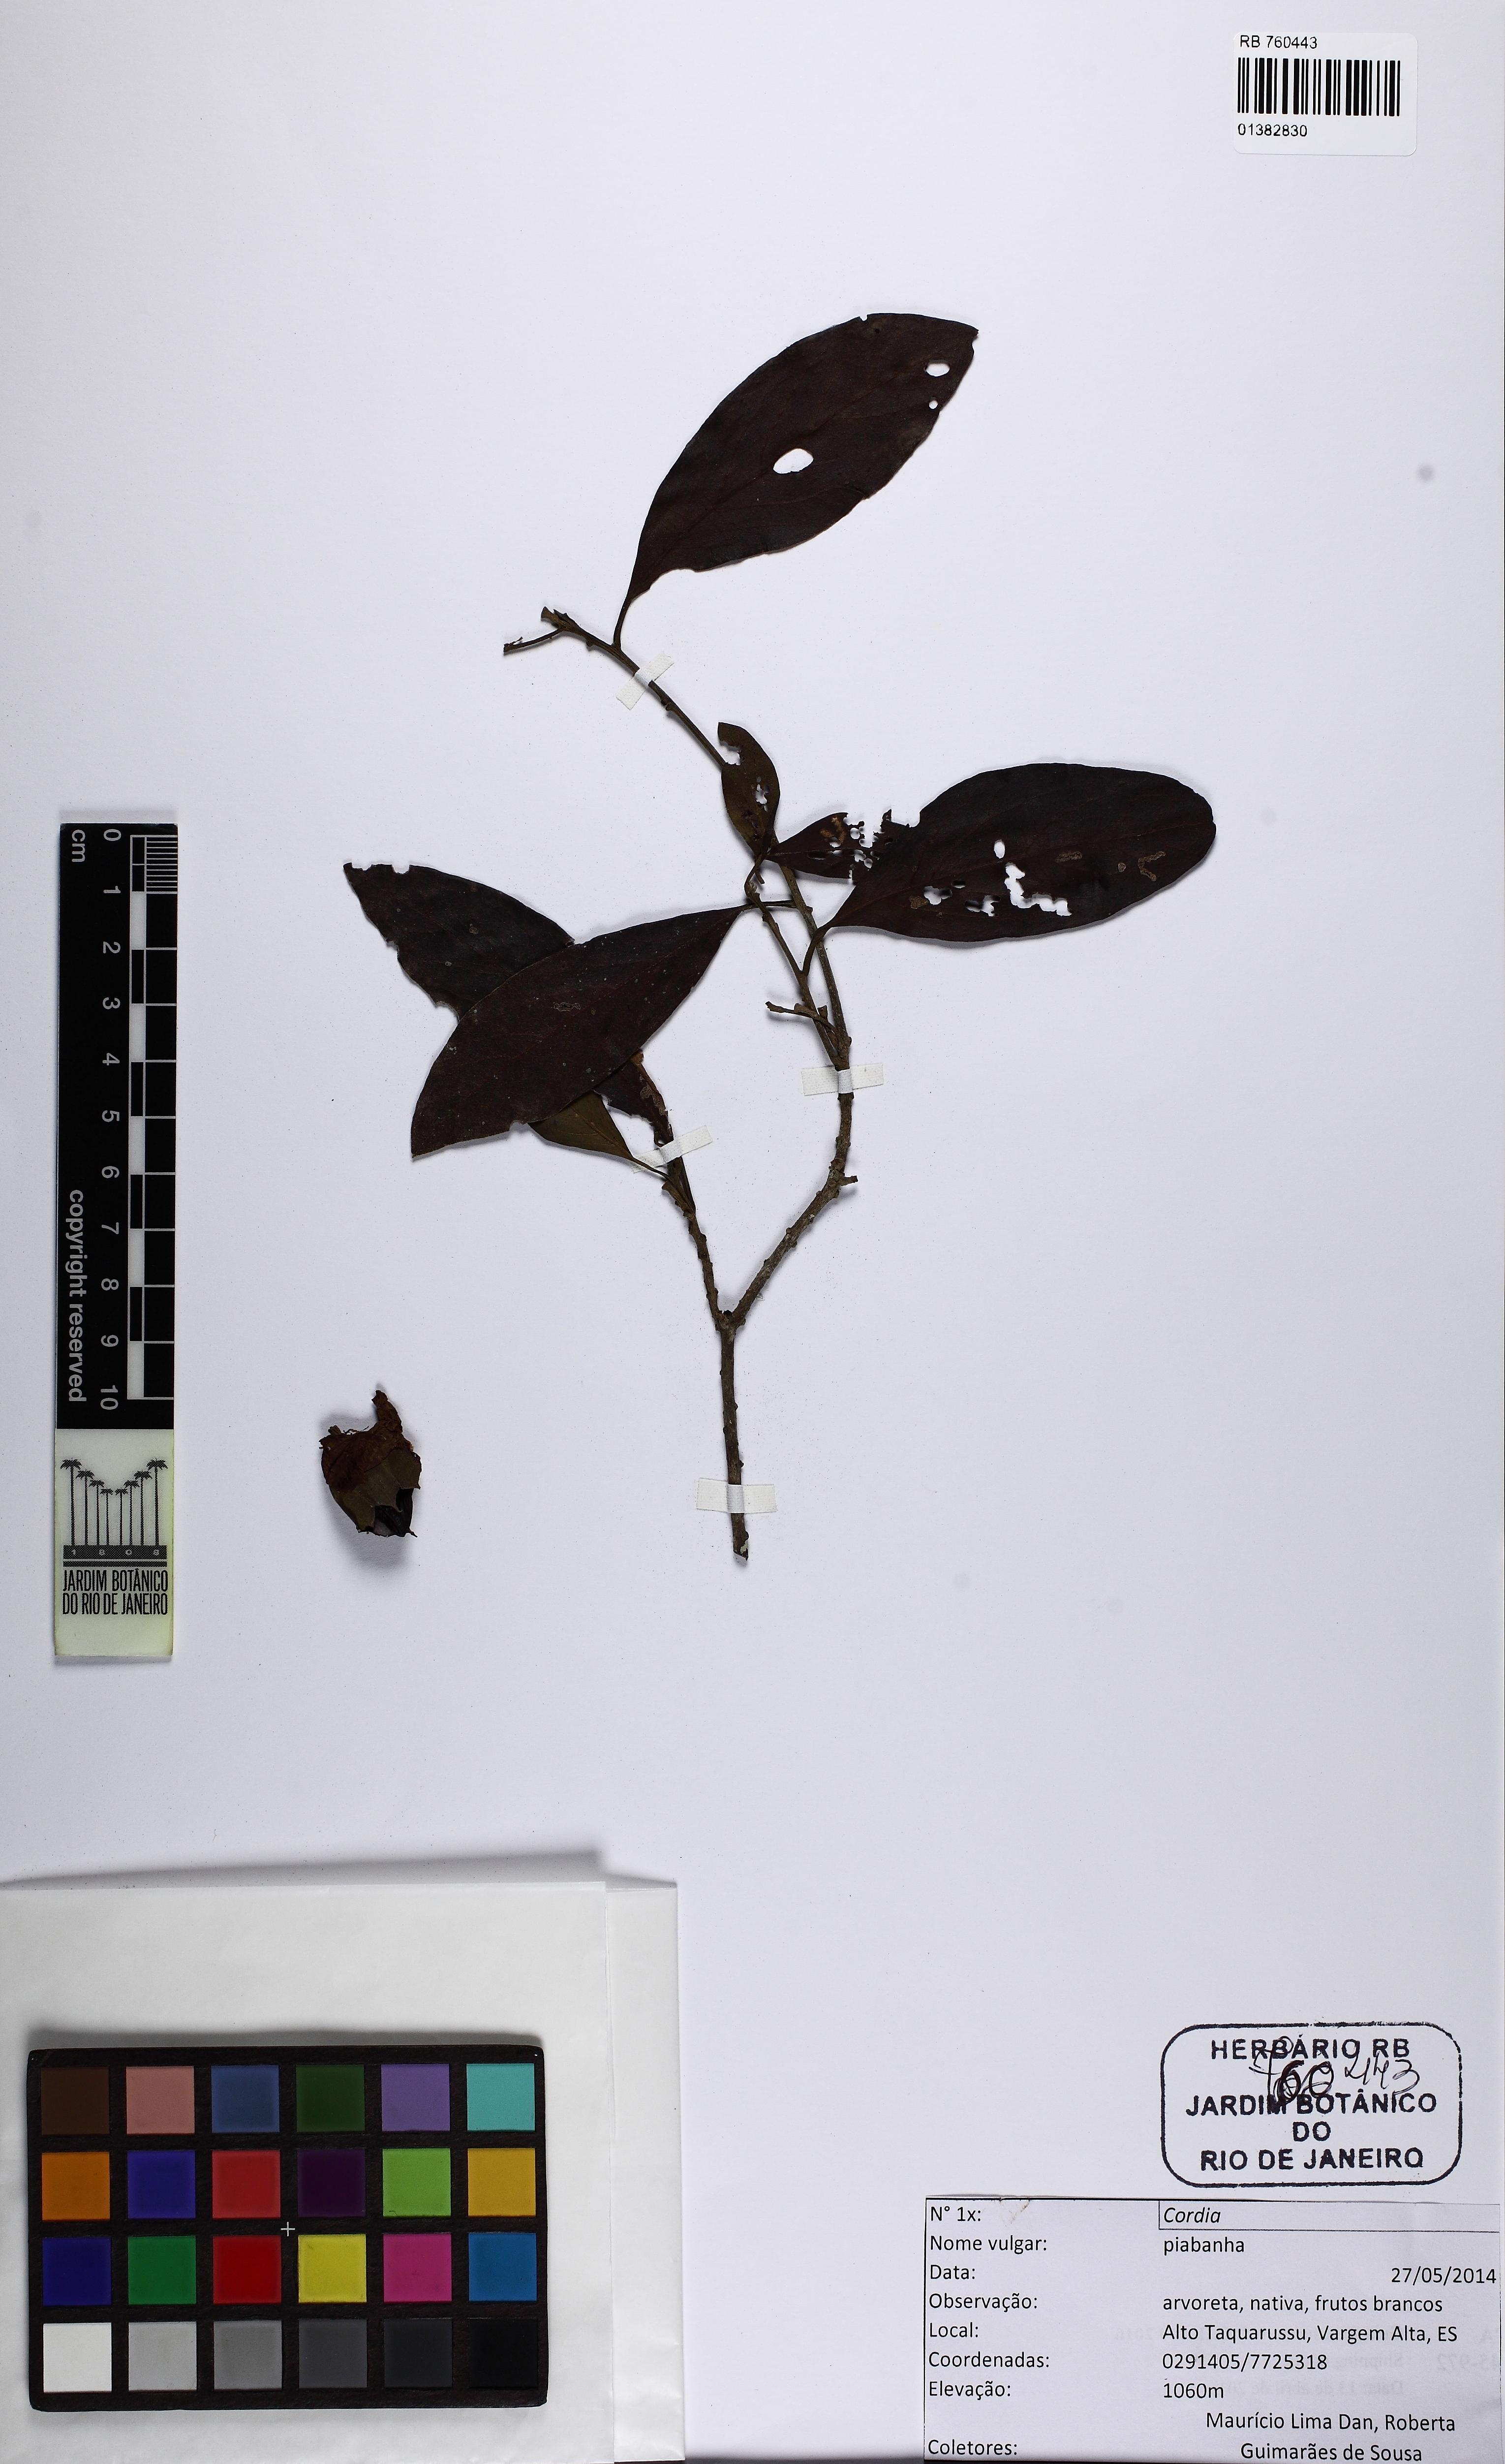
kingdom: Plantae
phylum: Tracheophyta
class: Magnoliopsida
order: Boraginales
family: Cordiaceae
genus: Cordia
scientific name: Cordia
